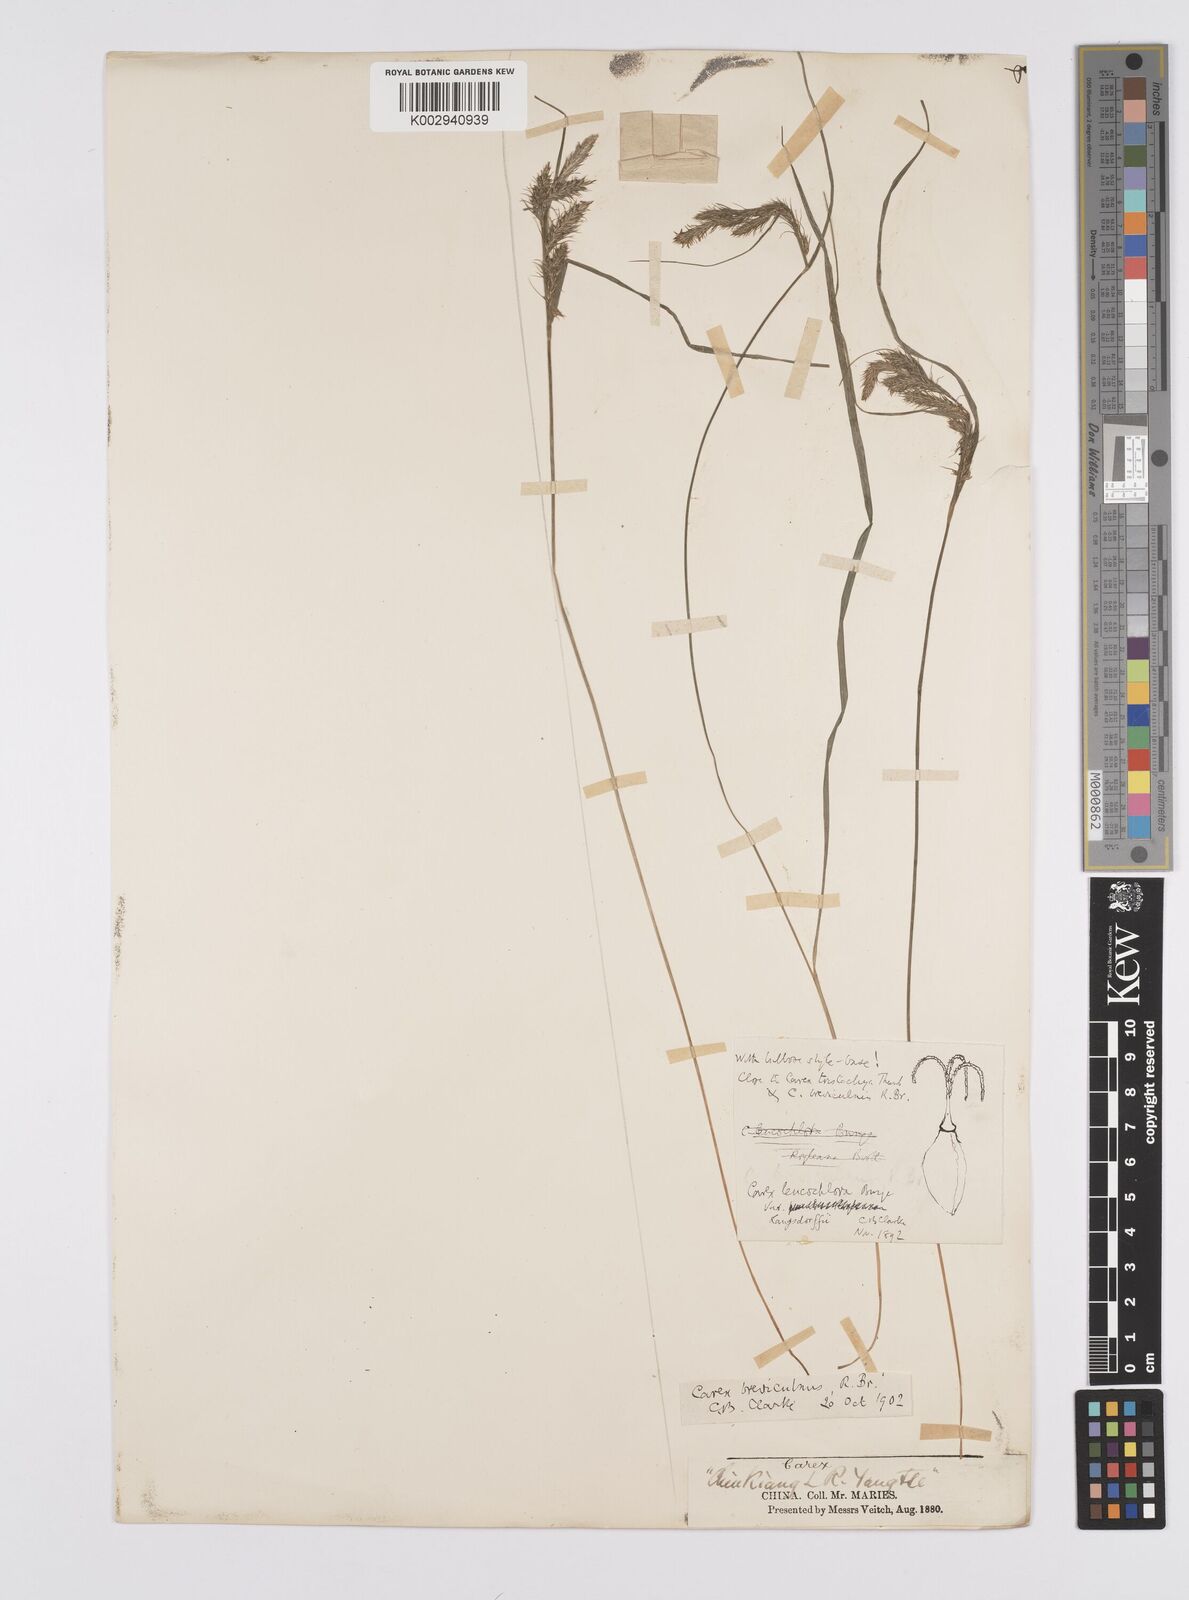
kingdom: Plantae
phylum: Tracheophyta
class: Liliopsida
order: Poales
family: Cyperaceae
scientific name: Cyperaceae
